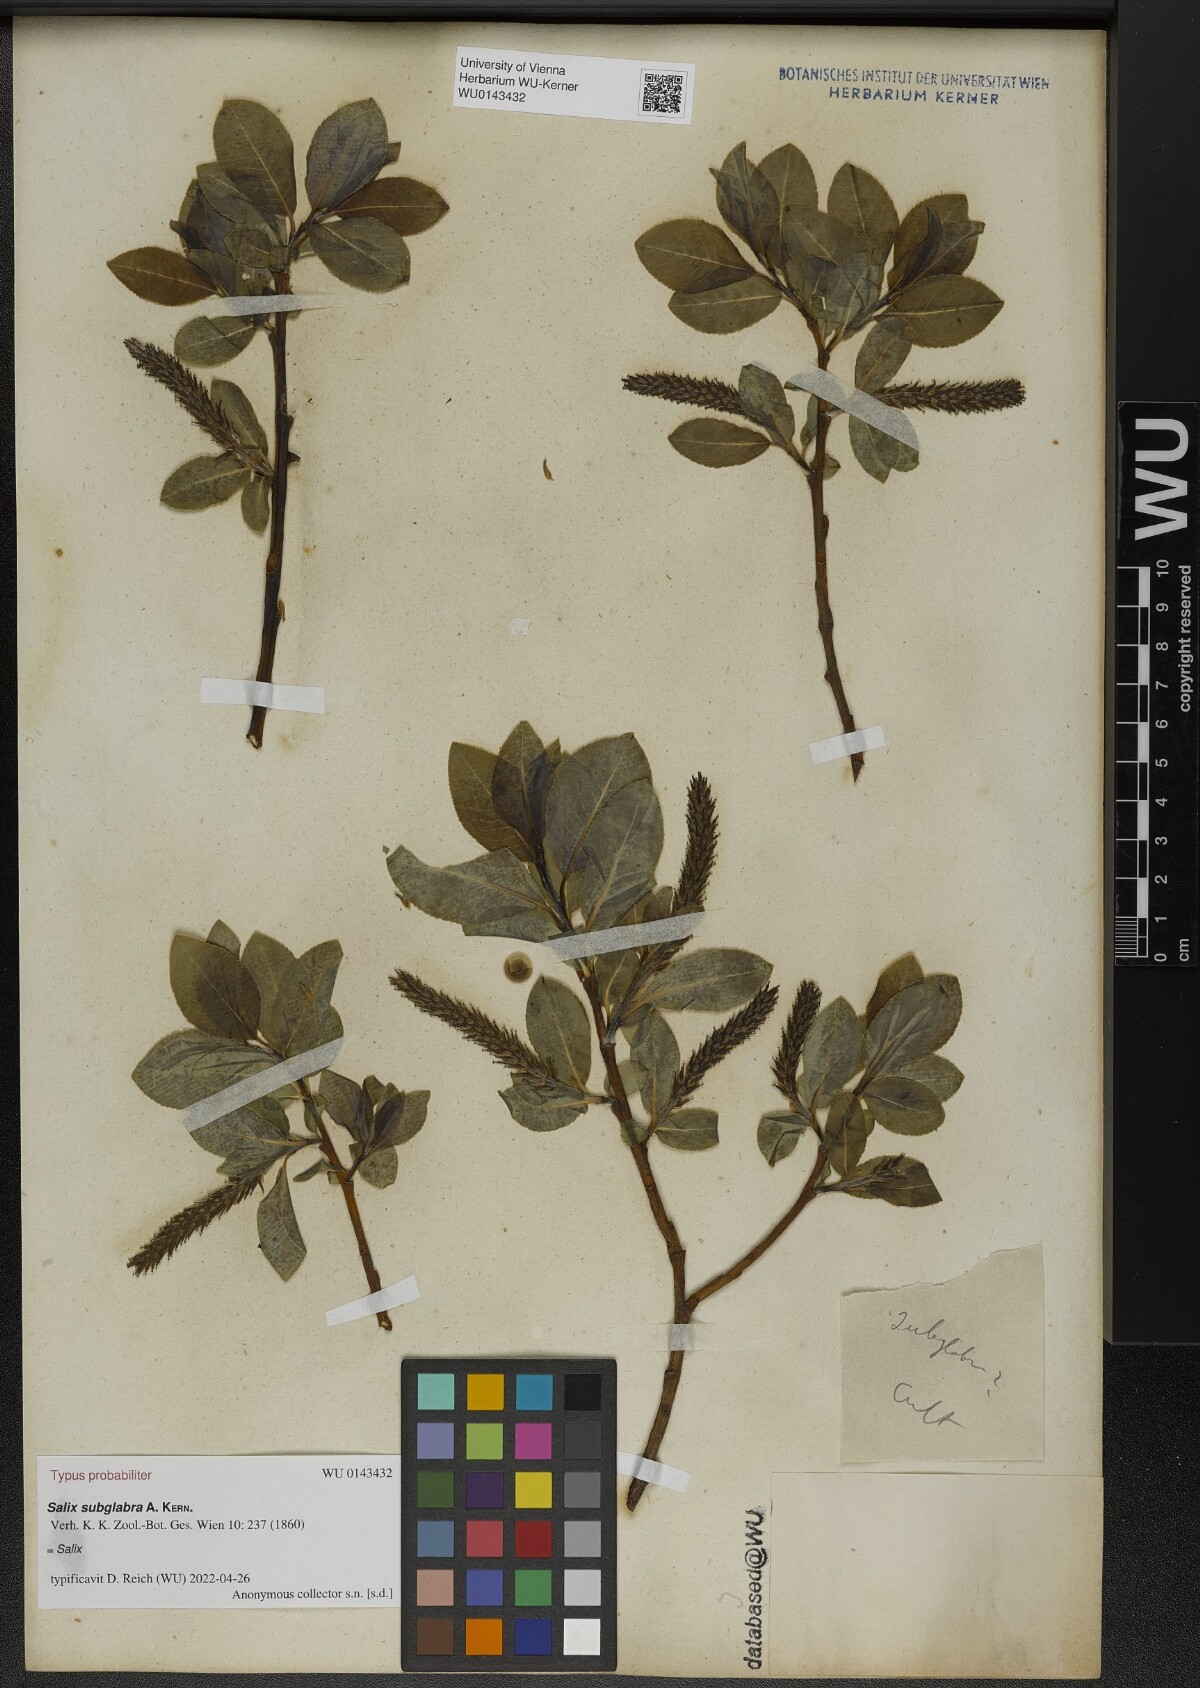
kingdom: Plantae
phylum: Tracheophyta
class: Magnoliopsida
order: Malpighiales
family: Salicaceae
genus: Salix
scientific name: Salix subglabra
